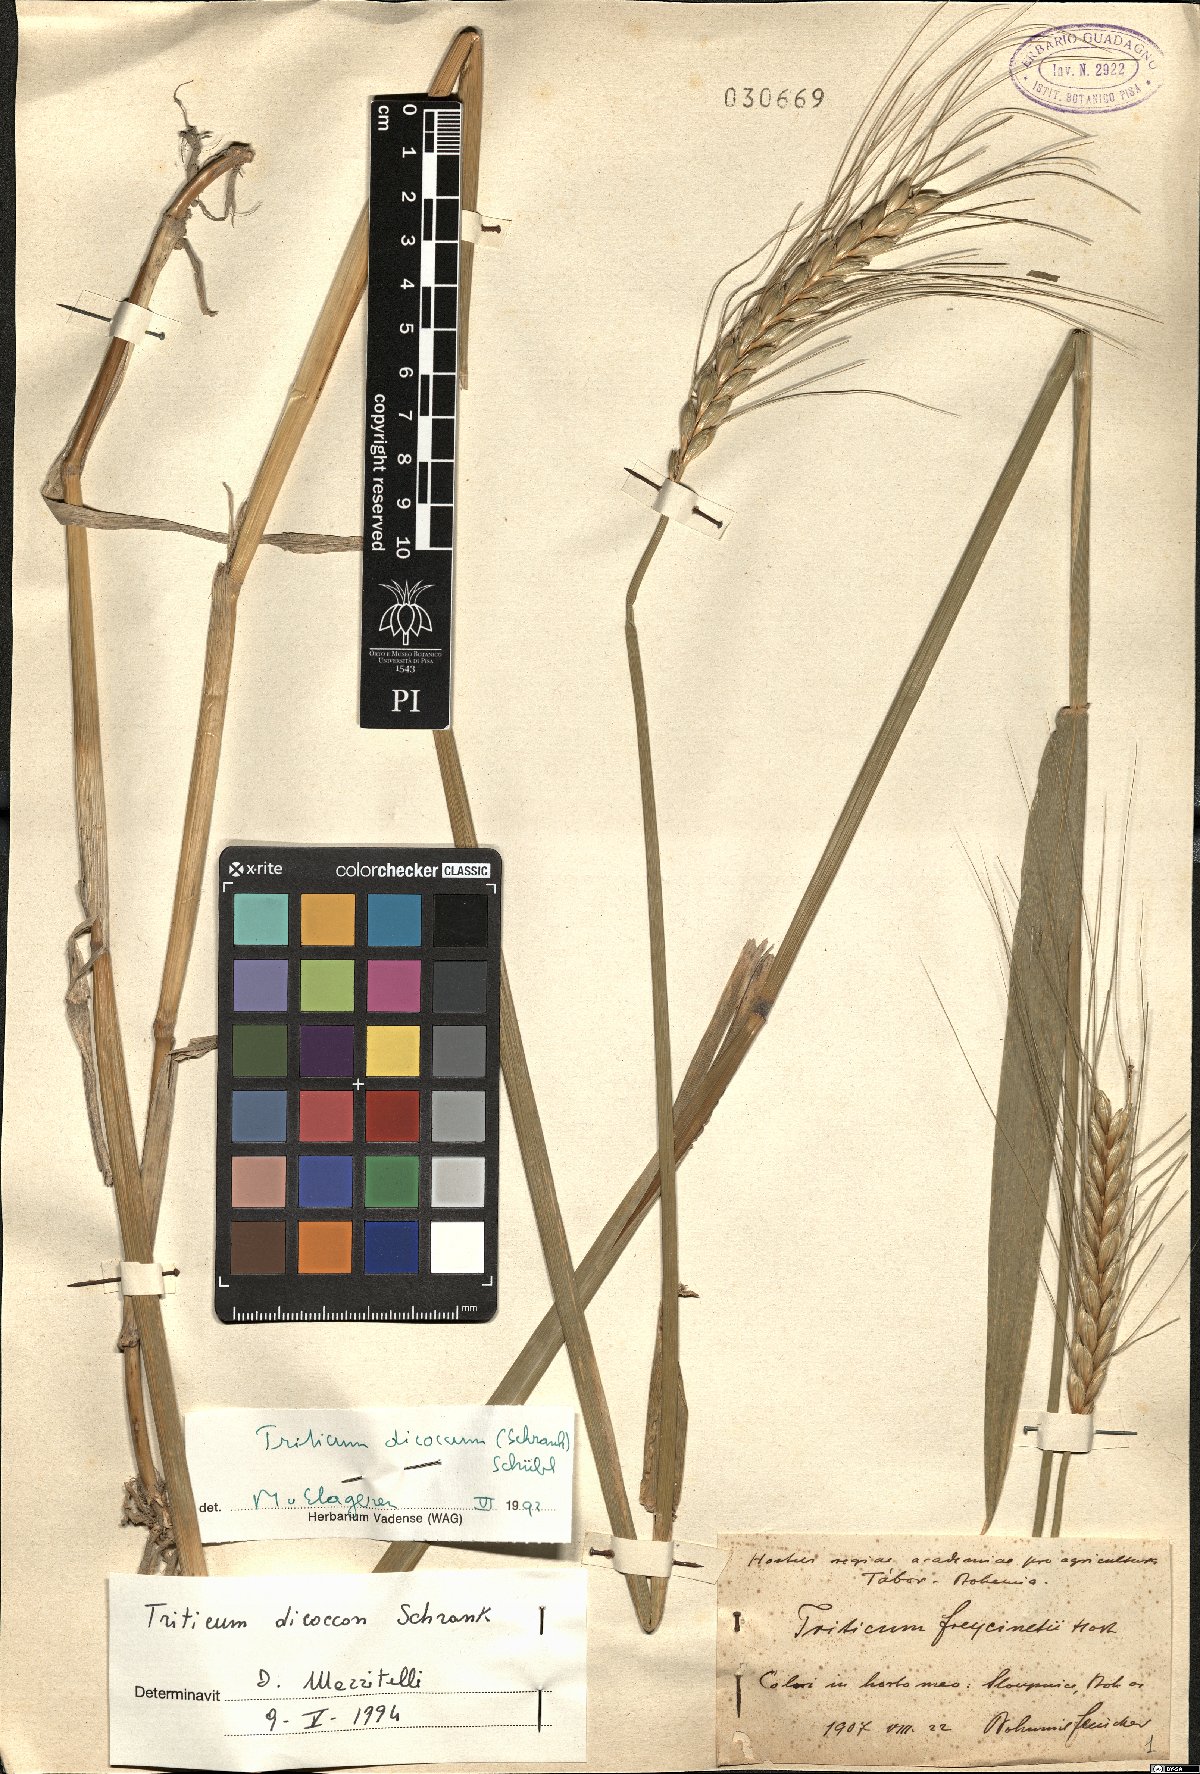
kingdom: Plantae
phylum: Tracheophyta
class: Liliopsida
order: Poales
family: Poaceae
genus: Triticum
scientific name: Triticum turgidum
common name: Rivet wheat
